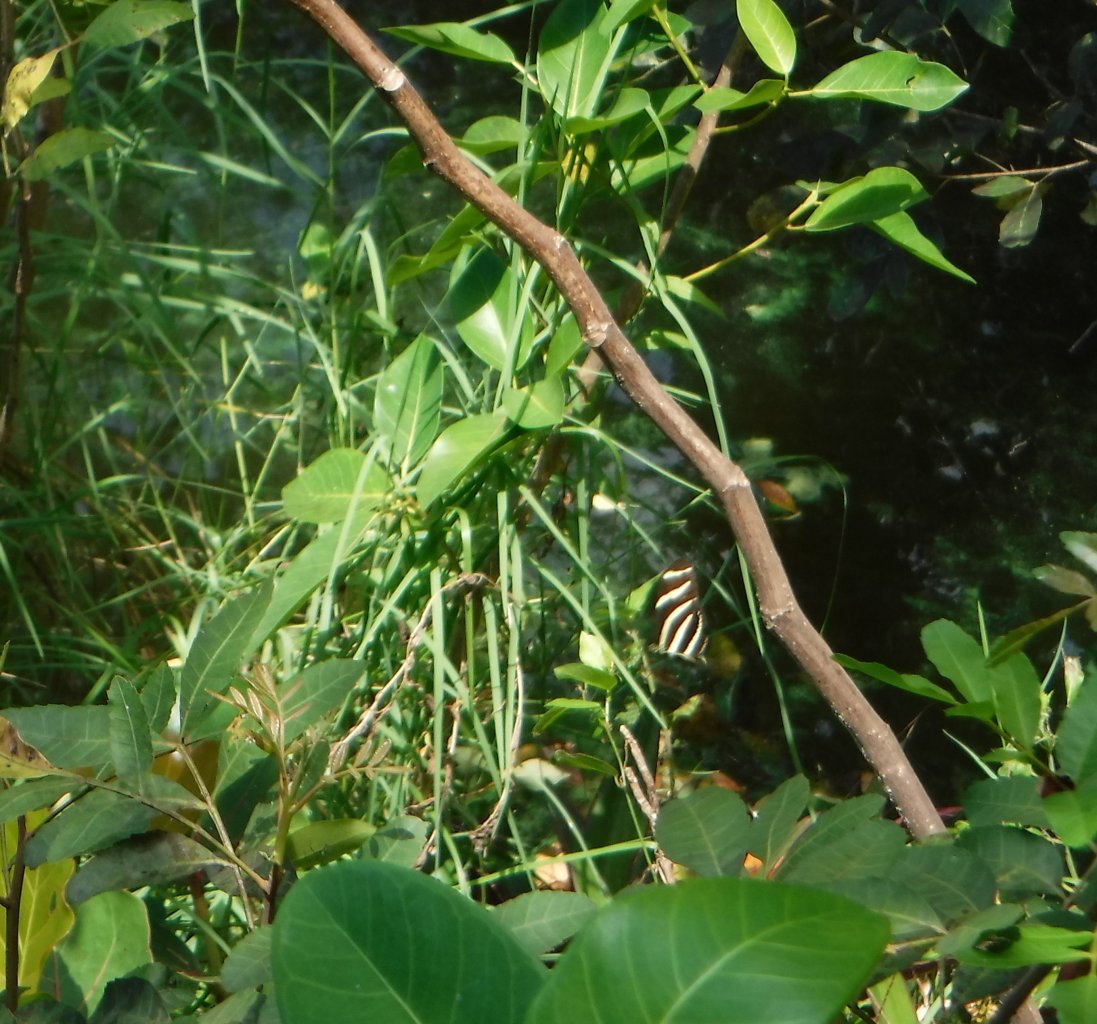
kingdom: Animalia
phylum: Arthropoda
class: Insecta
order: Lepidoptera
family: Nymphalidae
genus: Heliconius
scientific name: Heliconius charithonia
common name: Zebra Longwing
